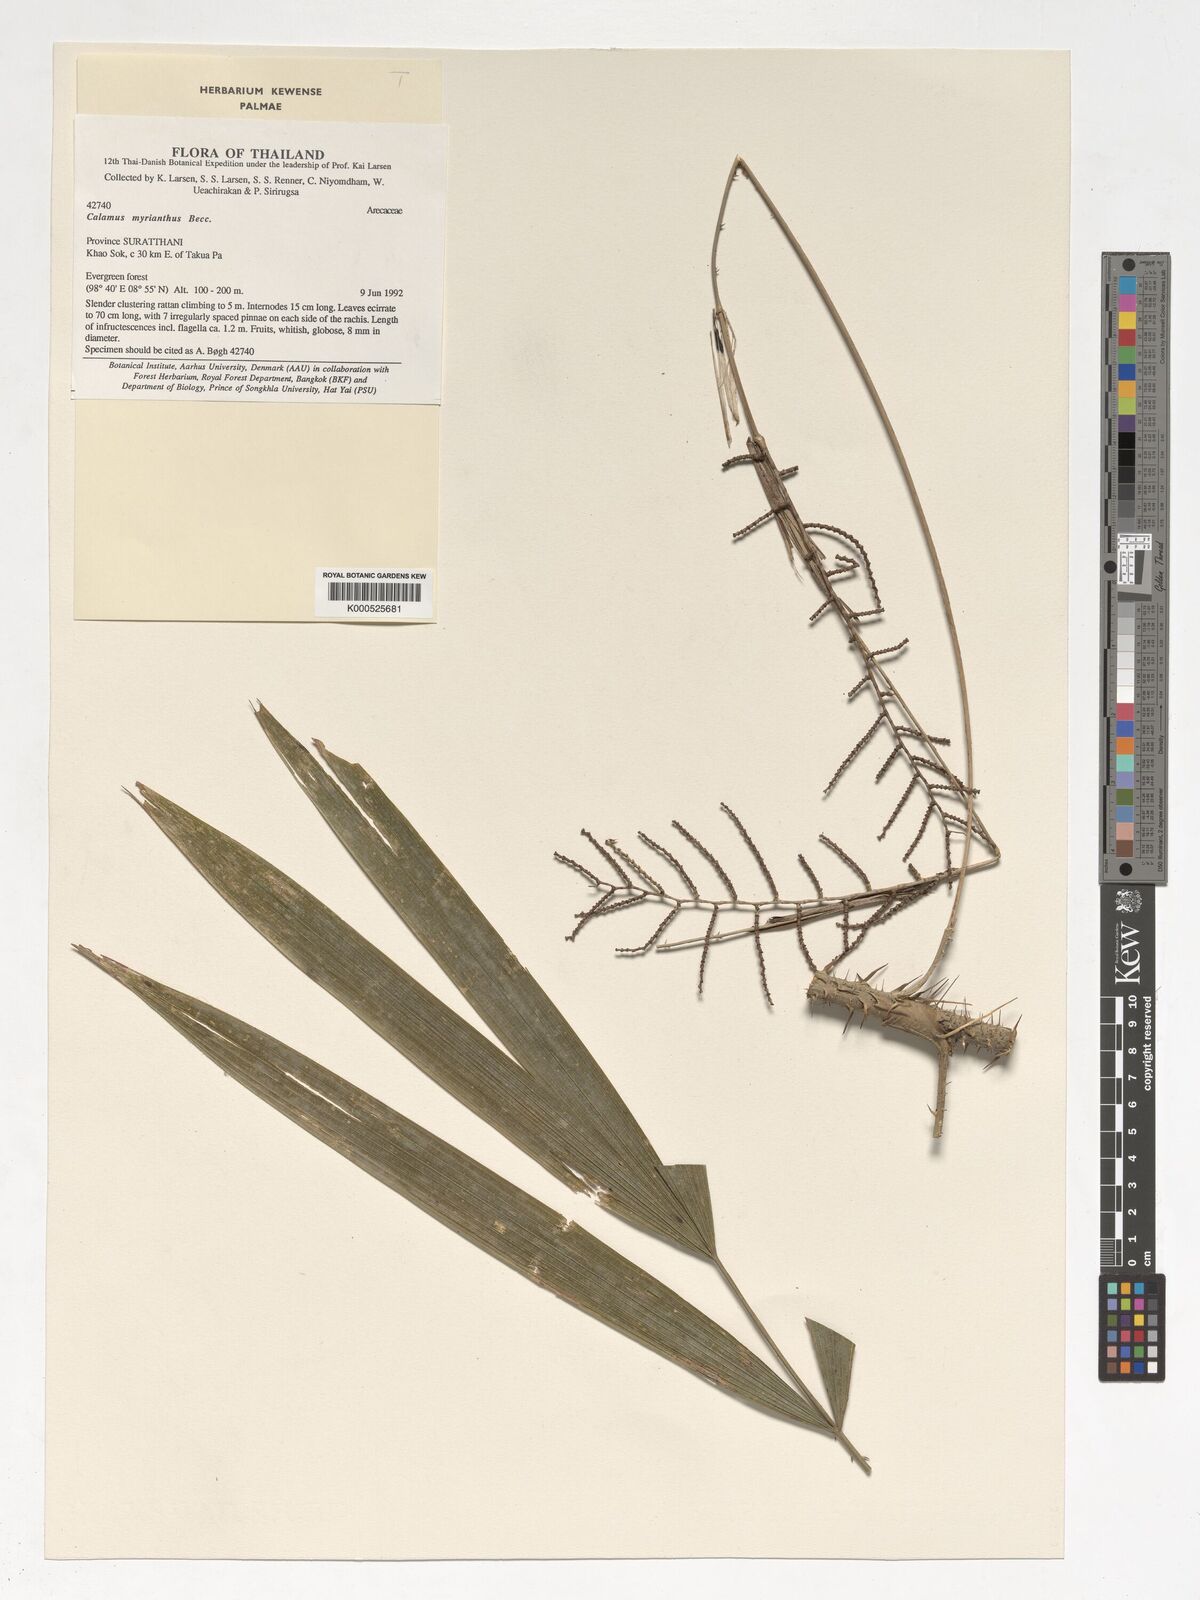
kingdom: Plantae
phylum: Tracheophyta
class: Liliopsida
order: Arecales
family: Arecaceae
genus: Calamus
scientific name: Calamus myrianthus
